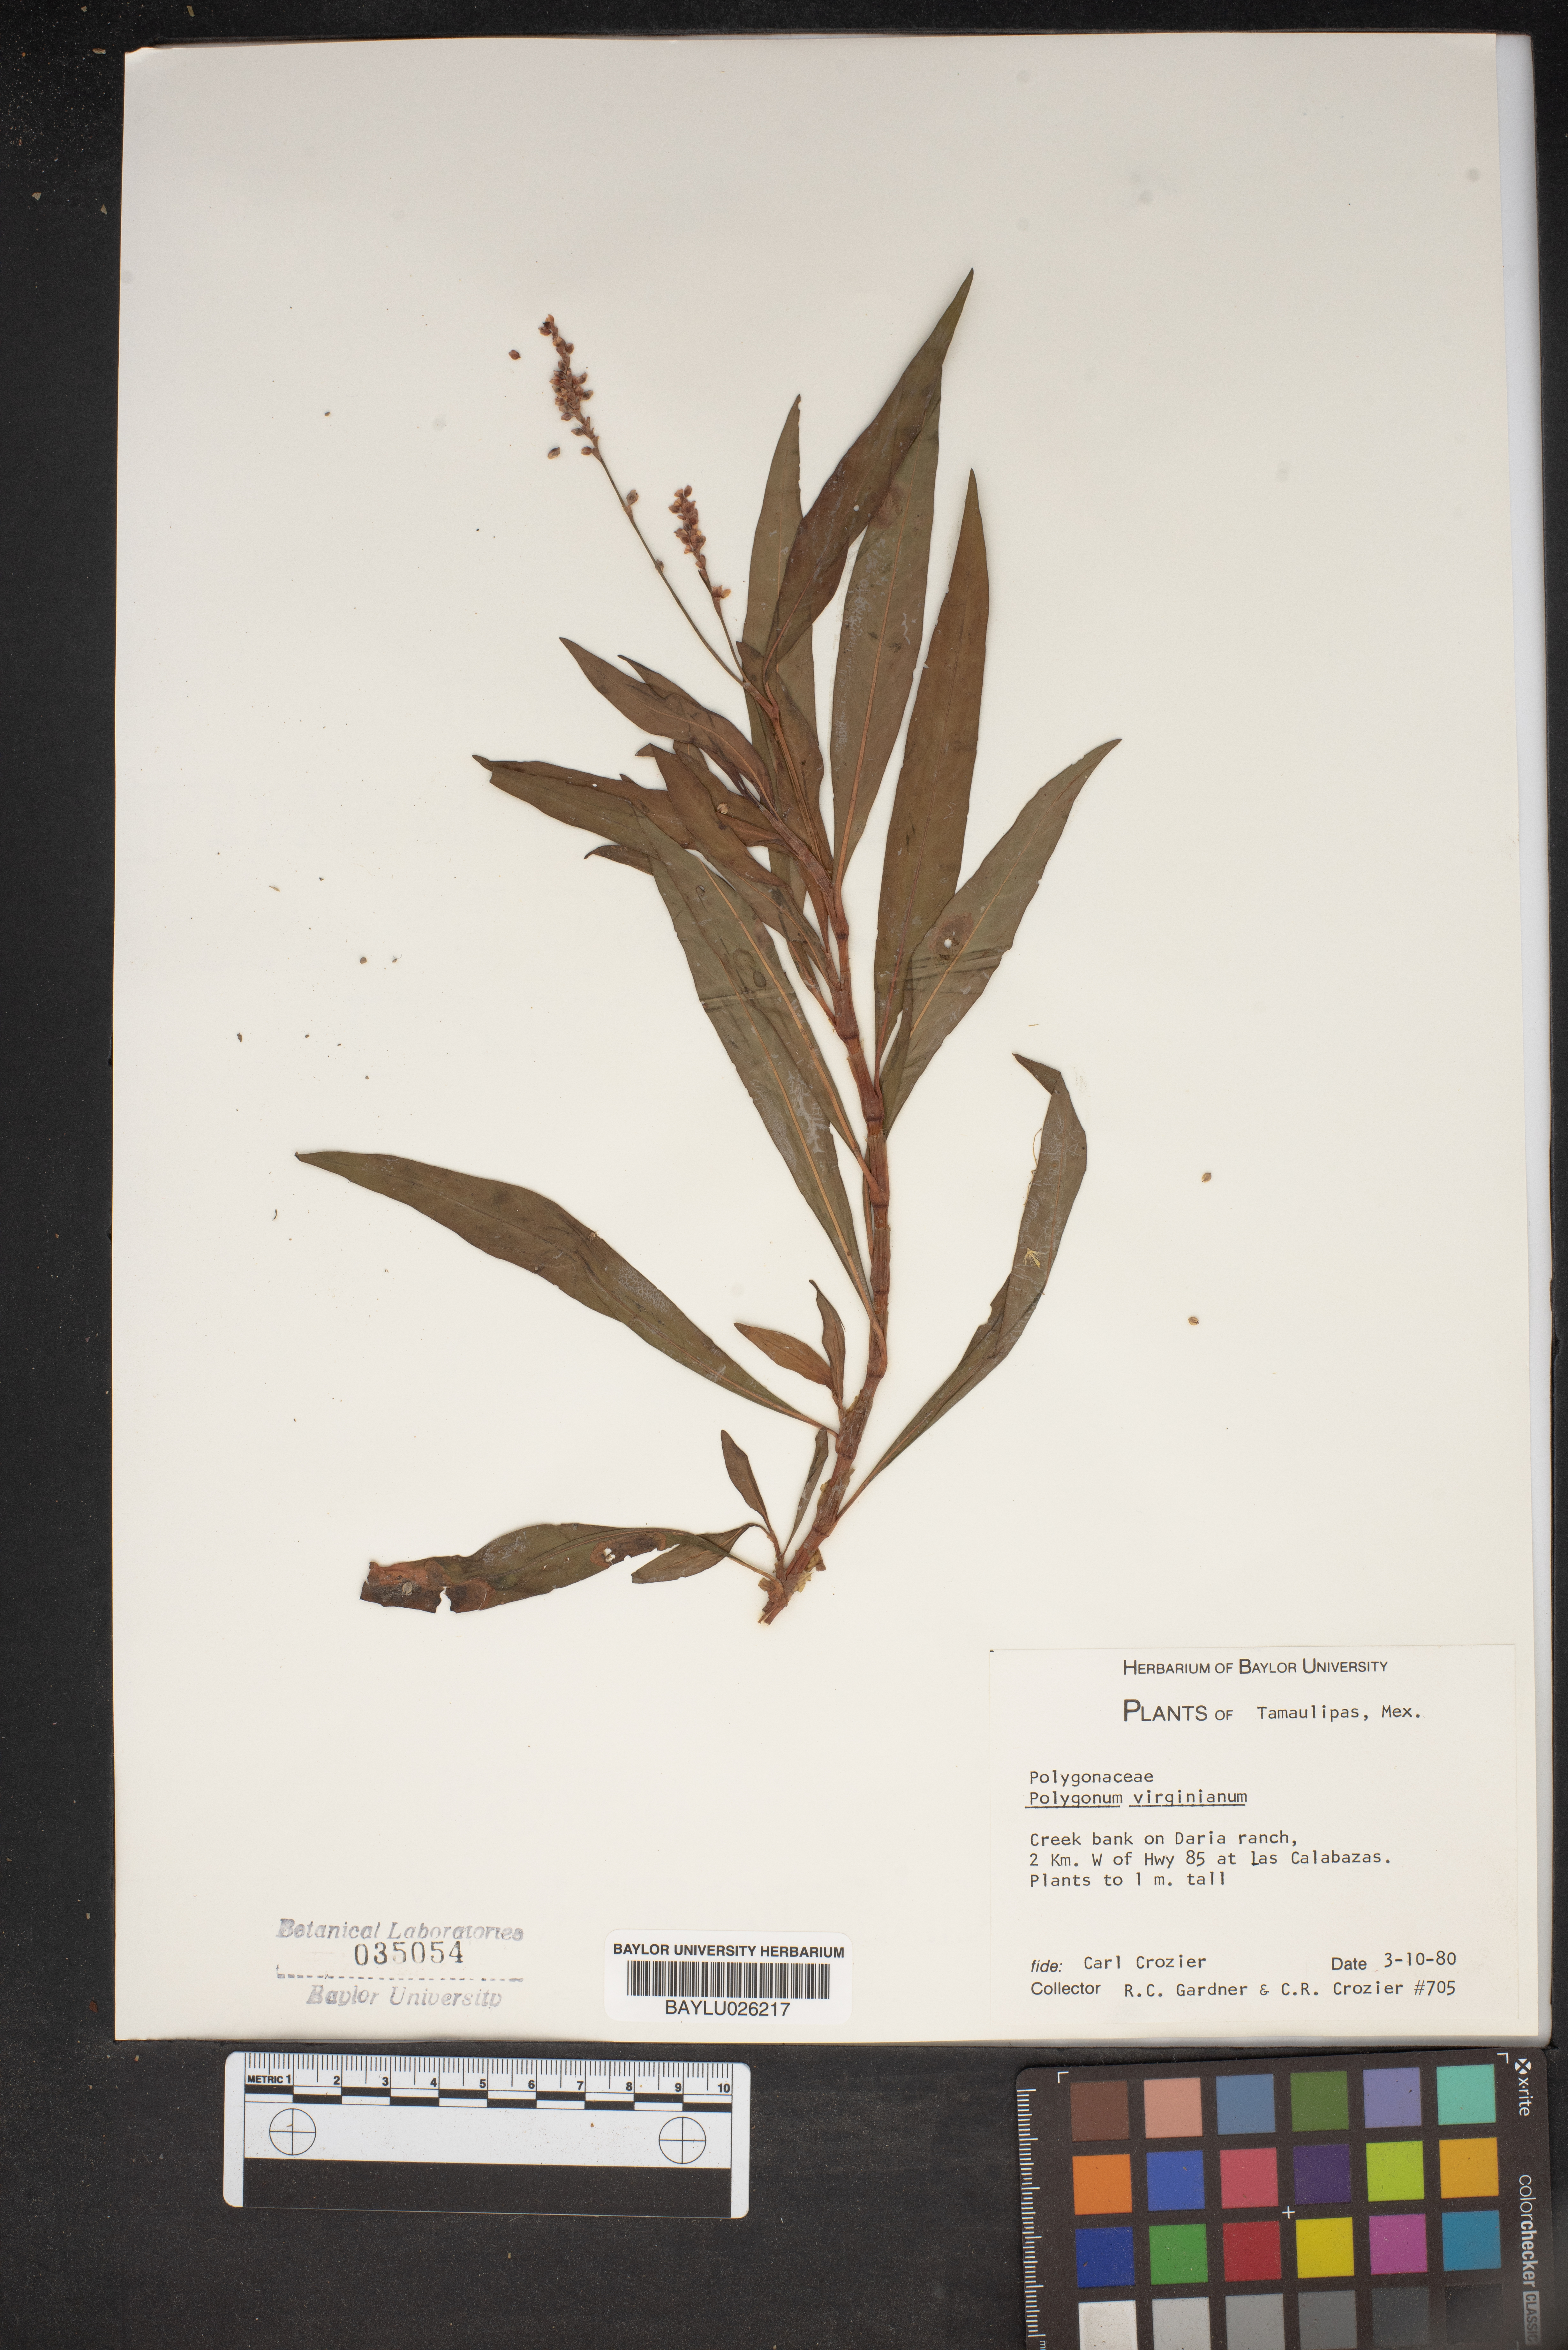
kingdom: Plantae
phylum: Tracheophyta
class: Magnoliopsida
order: Caryophyllales
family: Polygonaceae
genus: Persicaria
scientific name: Persicaria virginiana
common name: Jumpseed
